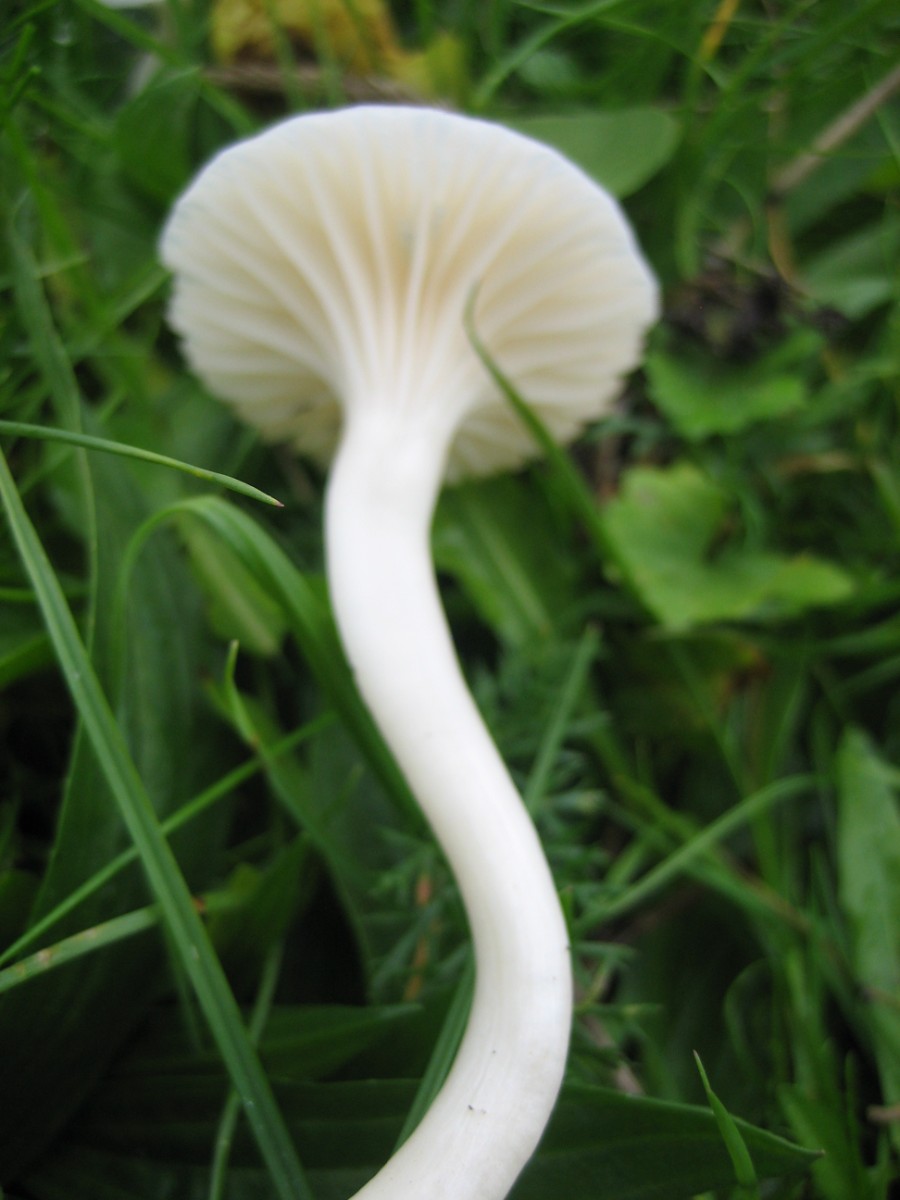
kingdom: Fungi
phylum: Basidiomycota
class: Agaricomycetes
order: Agaricales
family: Hygrophoraceae
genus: Cuphophyllus
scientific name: Cuphophyllus virgineus
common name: snehvid vokshat
